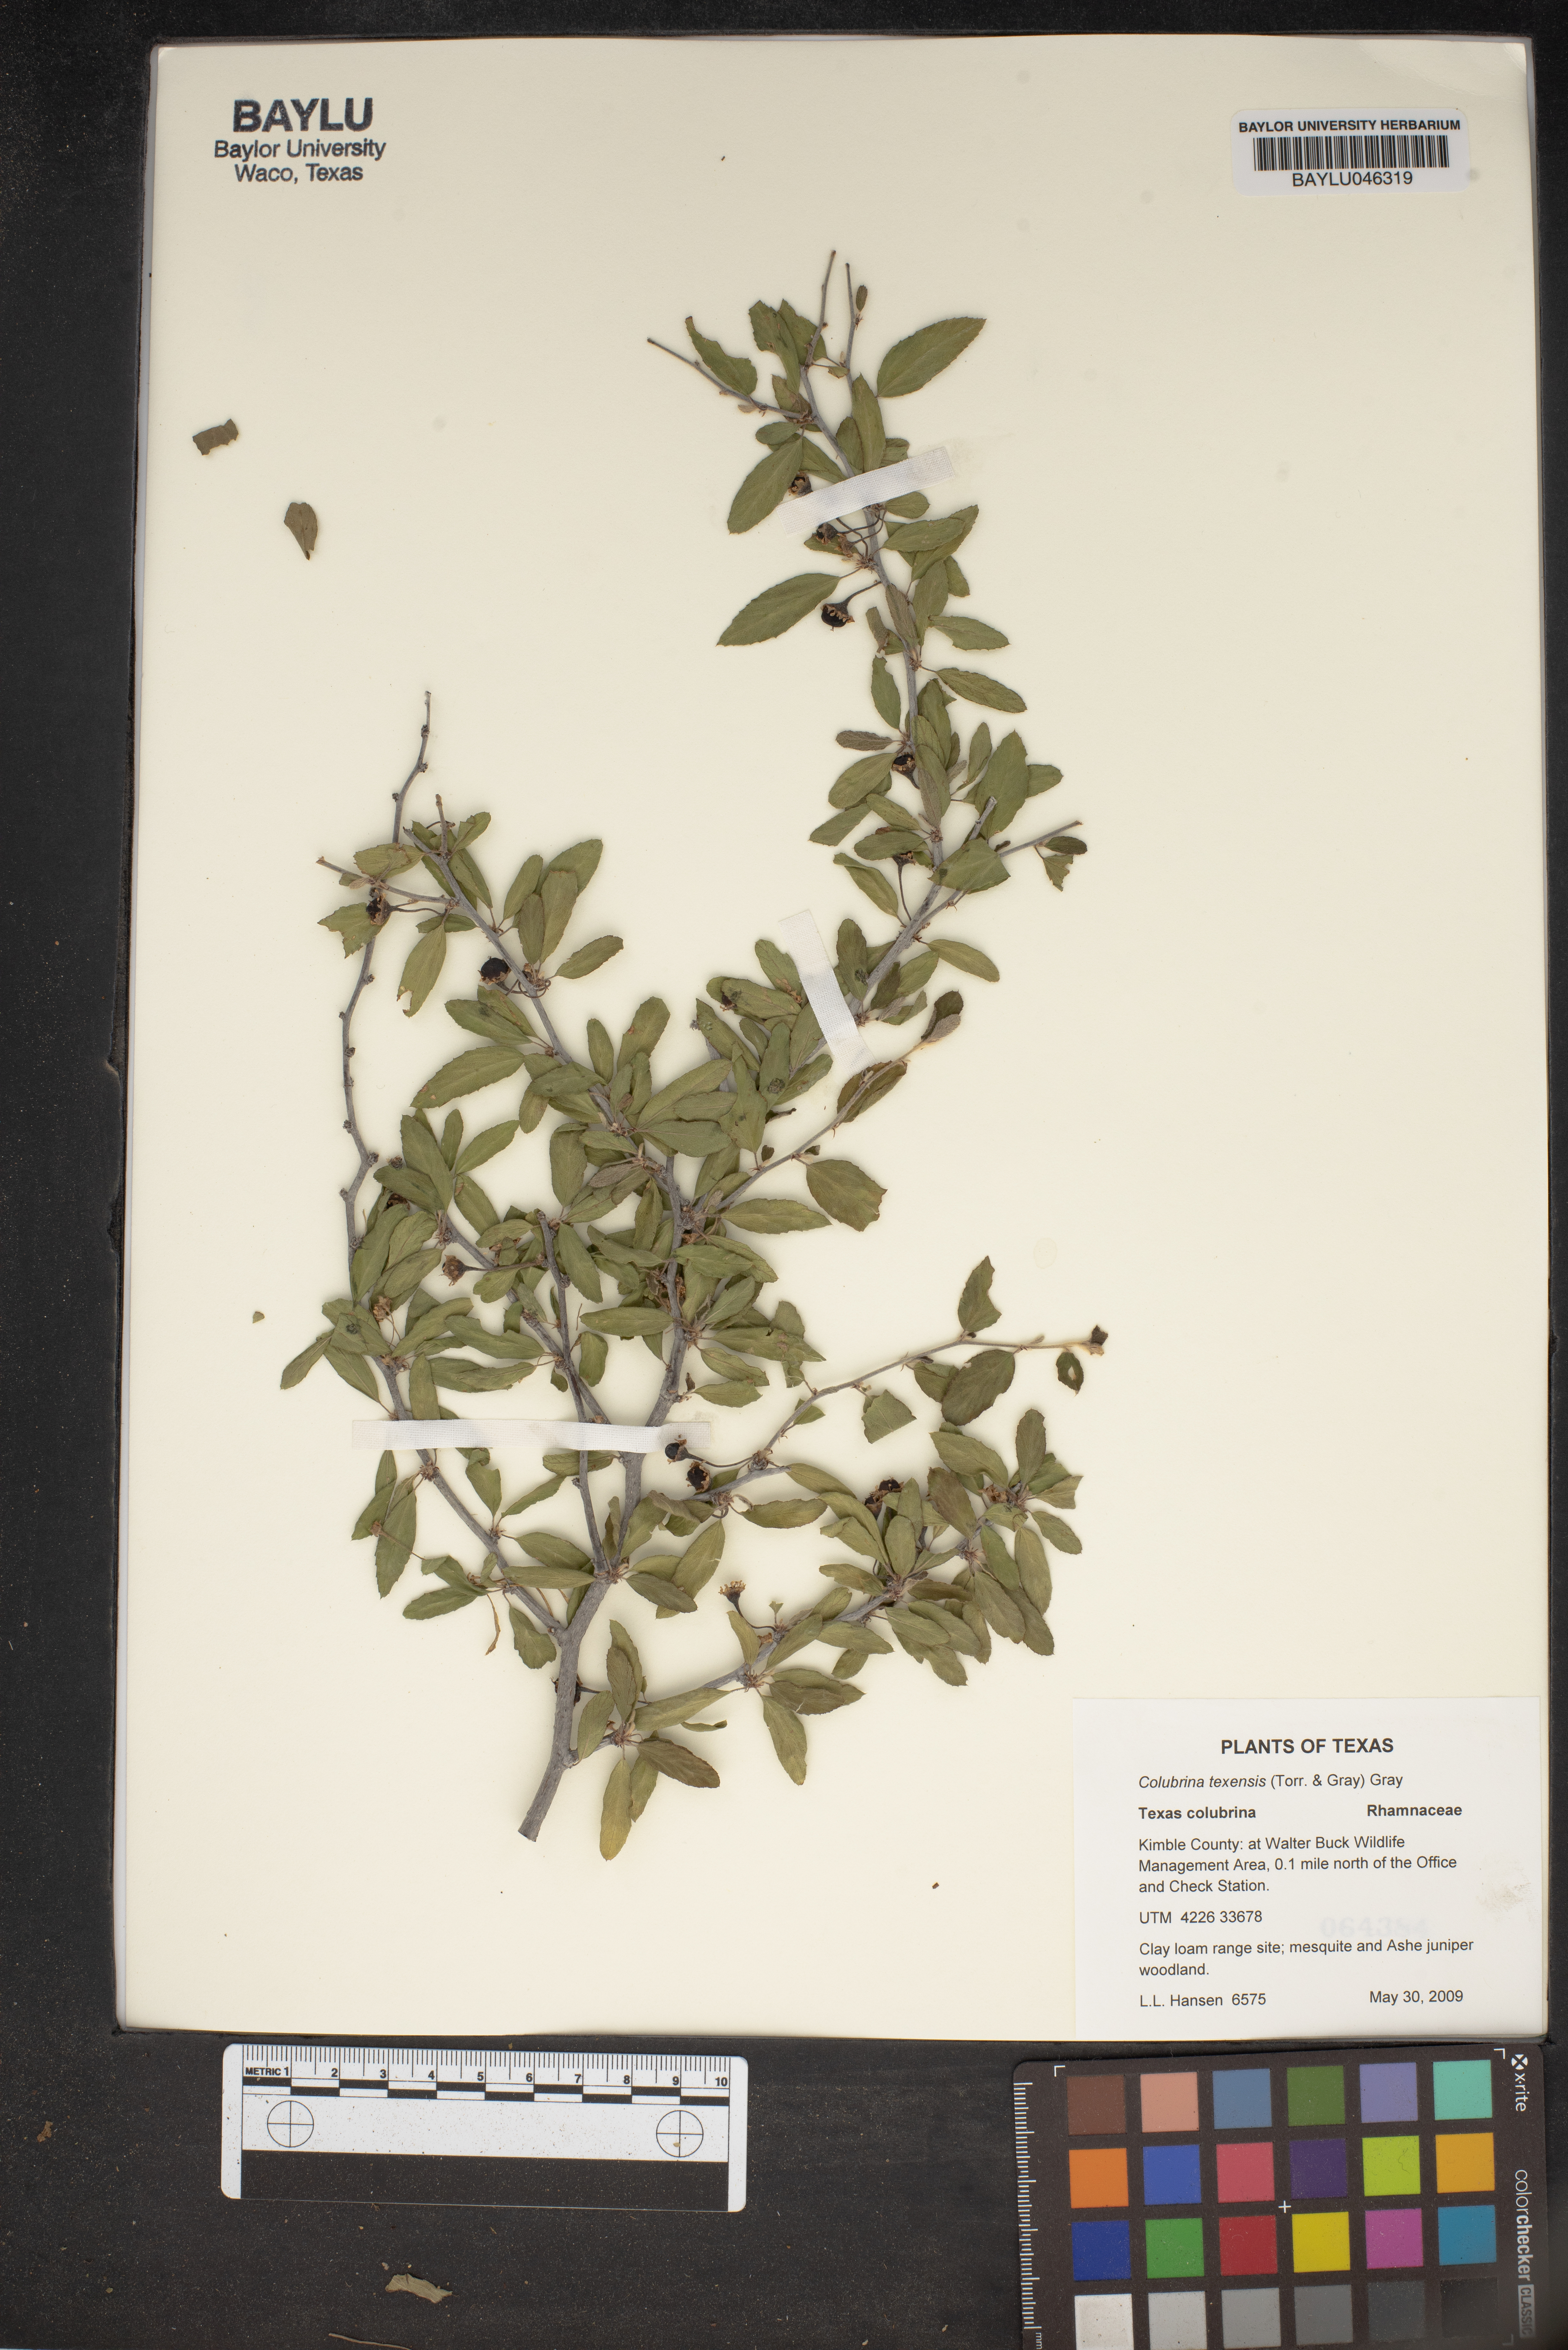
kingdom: Plantae
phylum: Tracheophyta
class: Magnoliopsida
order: Rosales
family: Rhamnaceae
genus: Colubrina
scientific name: Colubrina texensis
